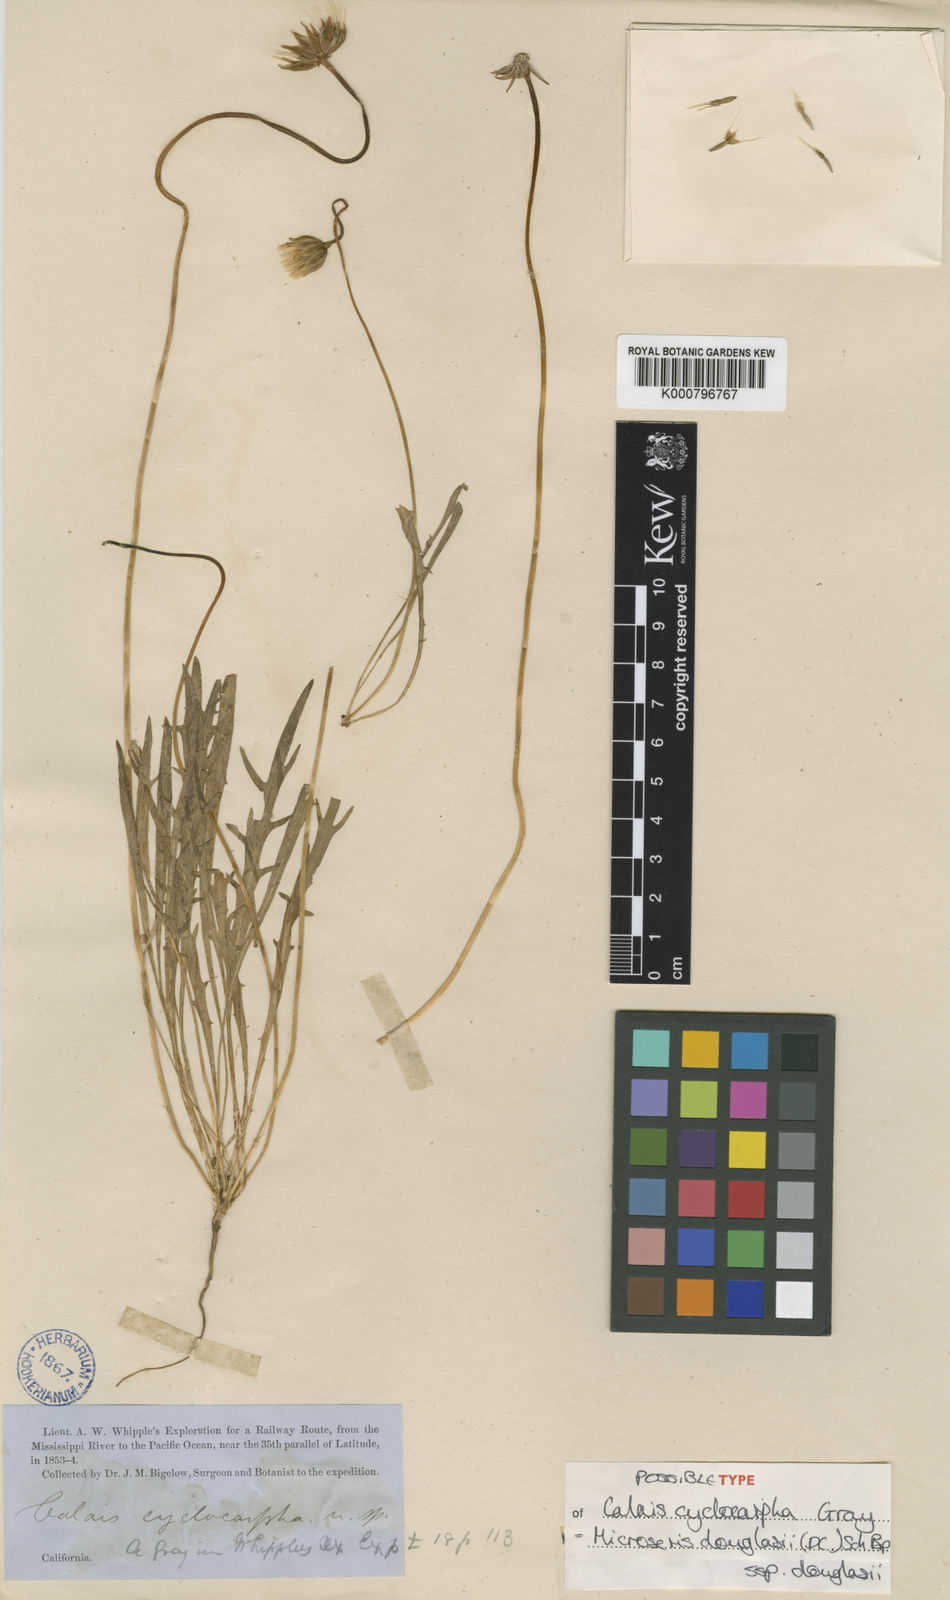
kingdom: Plantae
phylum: Tracheophyta
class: Magnoliopsida
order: Asterales
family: Asteraceae
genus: Microseris
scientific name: Microseris douglasii
